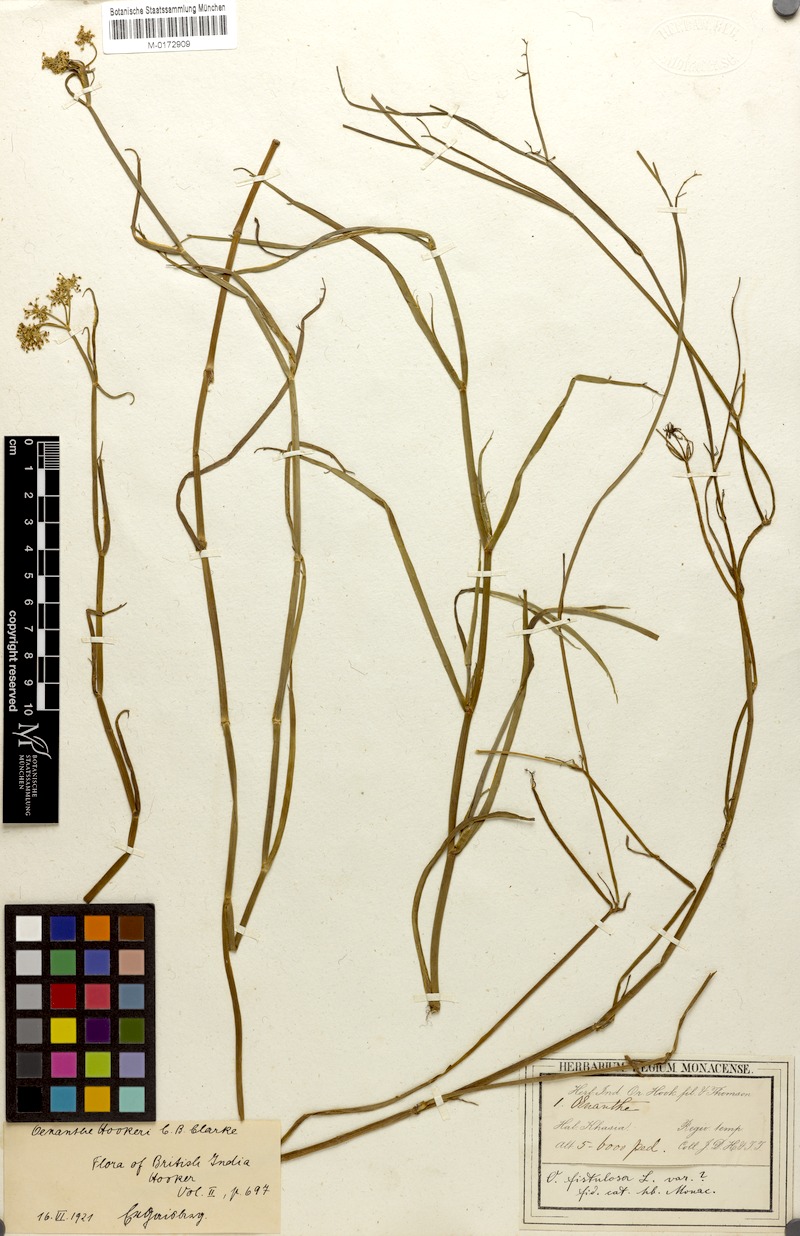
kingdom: Plantae
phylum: Tracheophyta
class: Magnoliopsida
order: Apiales
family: Apiaceae
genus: Oenanthe
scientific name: Oenanthe hookeri
